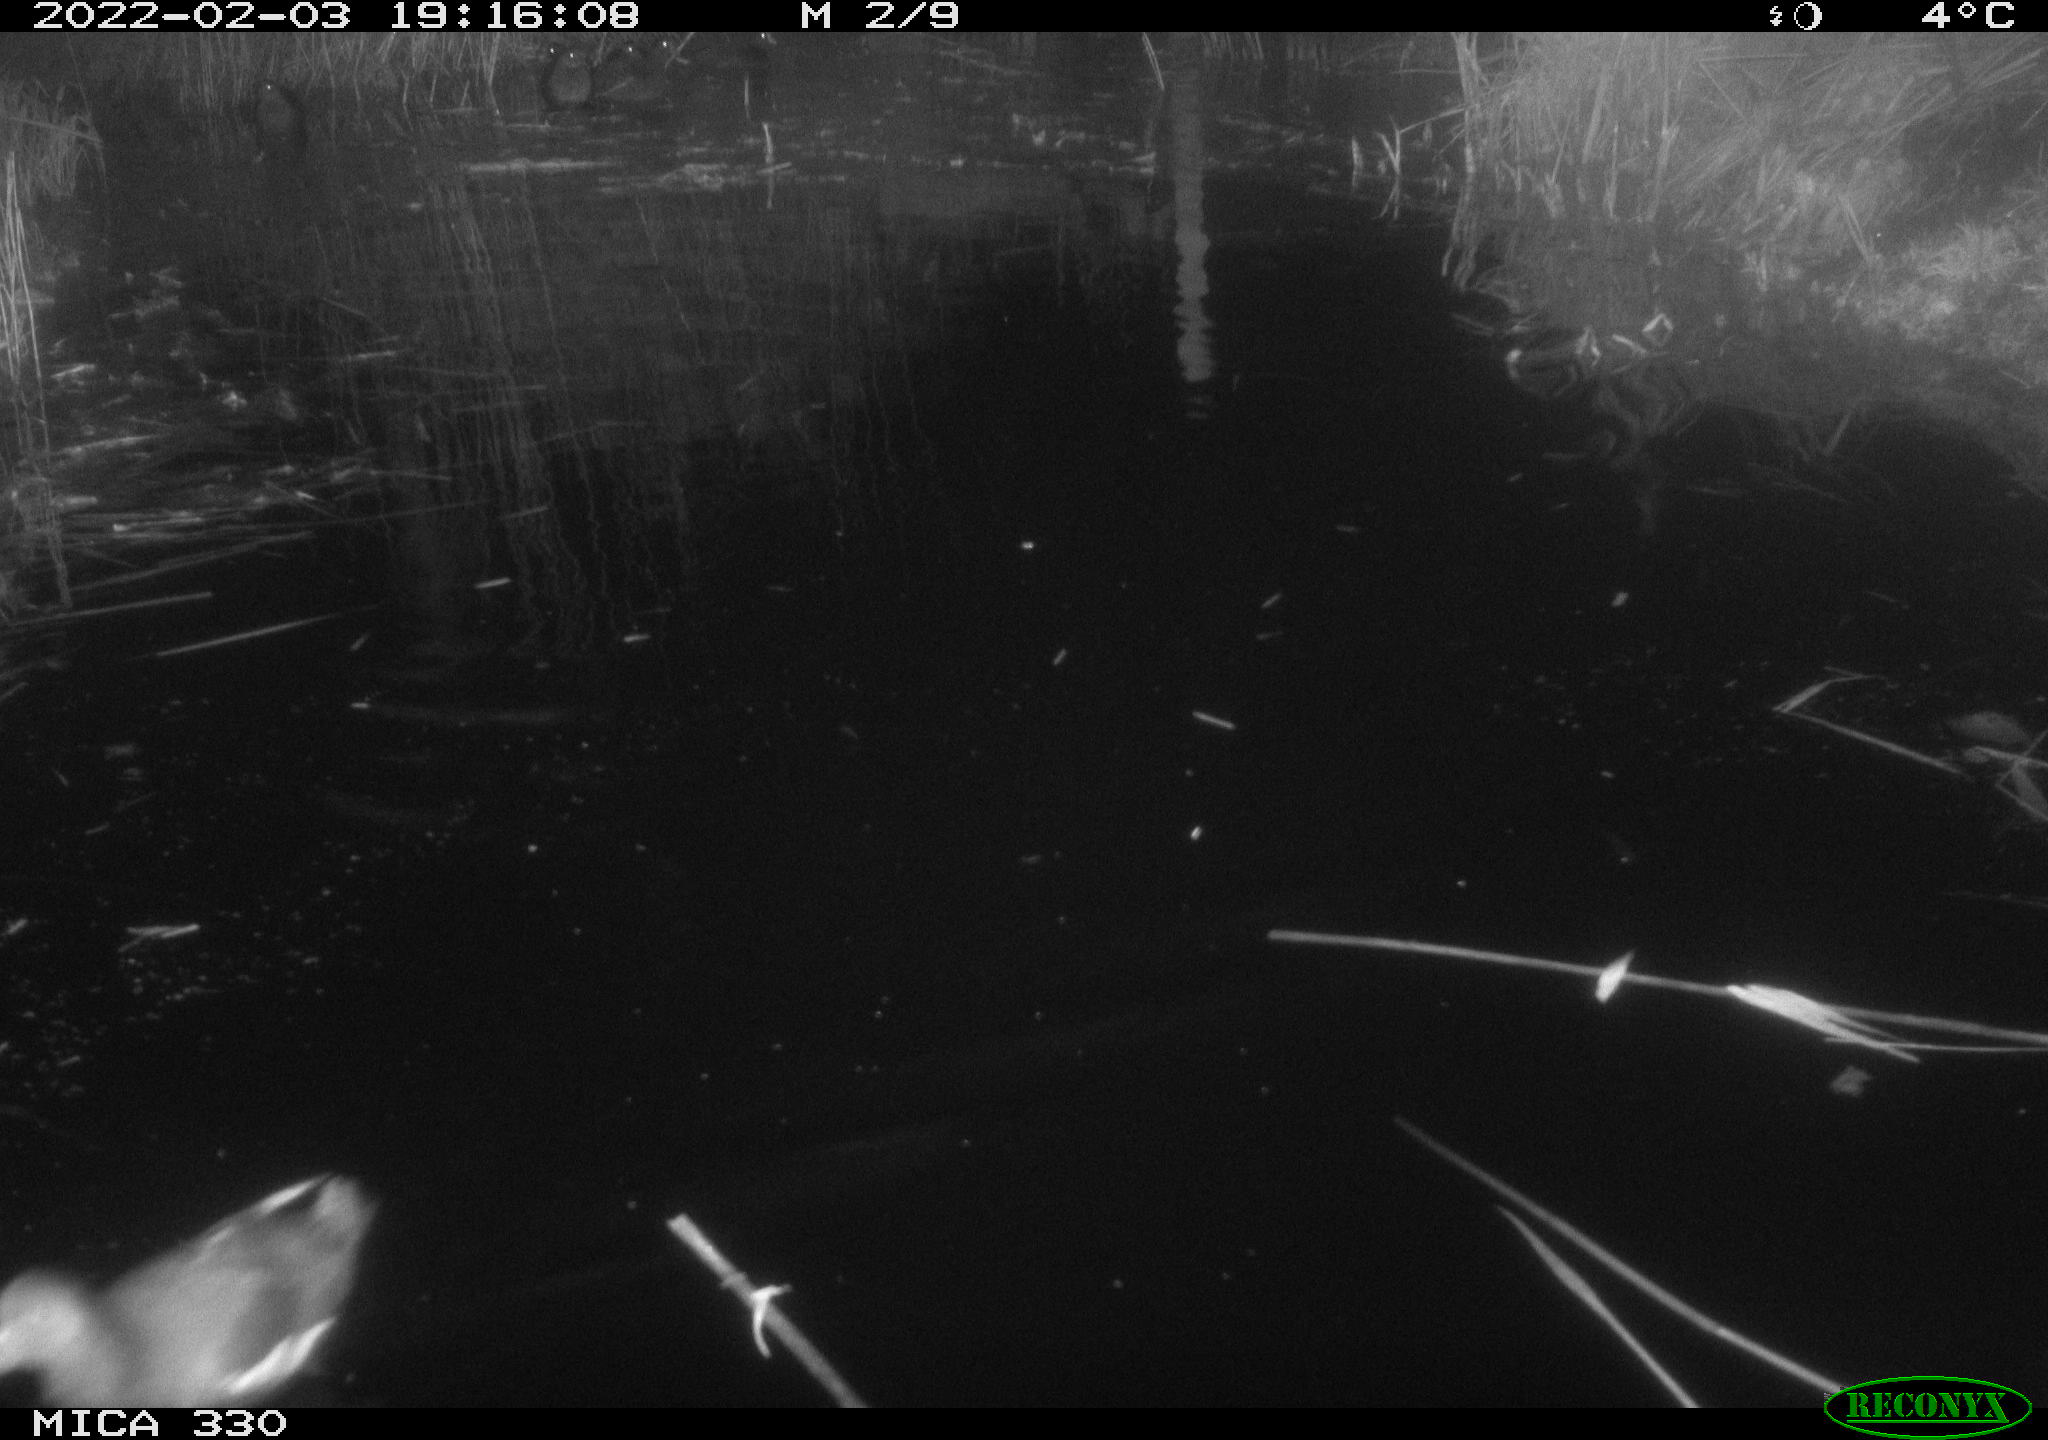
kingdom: Animalia
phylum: Chordata
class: Aves
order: Gruiformes
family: Rallidae
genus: Gallinula
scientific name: Gallinula chloropus
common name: Common moorhen
